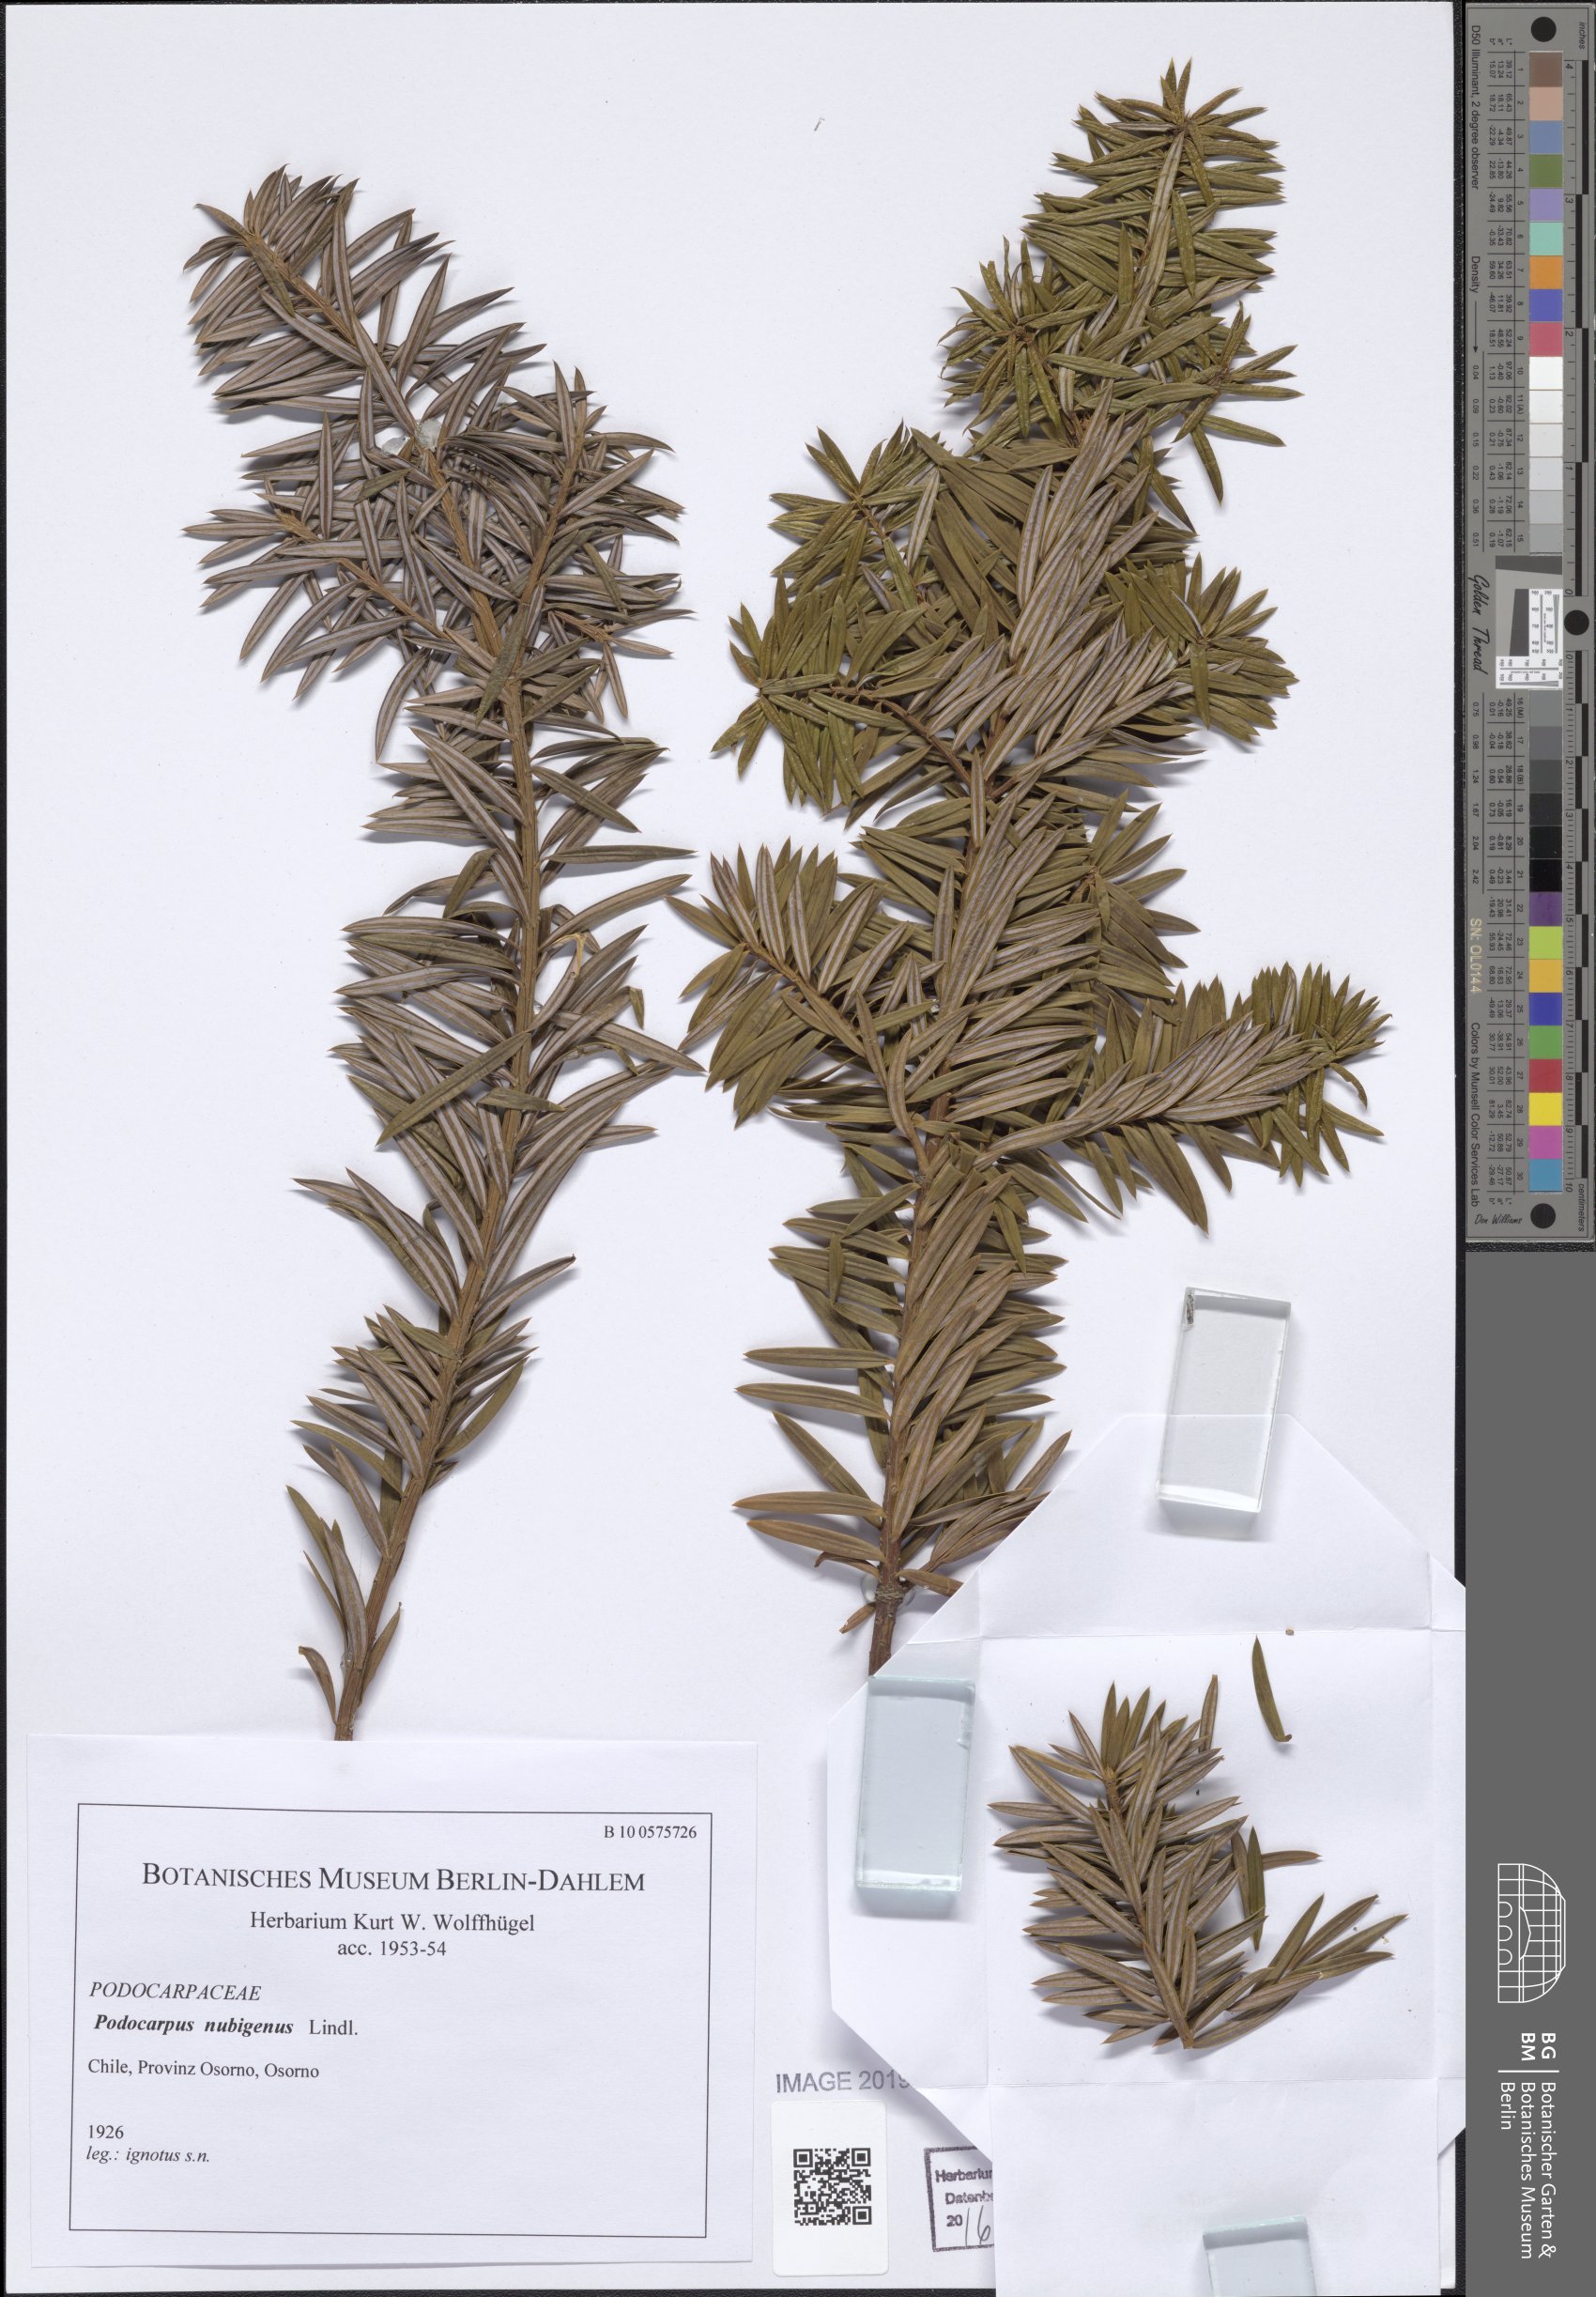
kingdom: Plantae
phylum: Tracheophyta
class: Pinopsida
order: Pinales
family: Podocarpaceae
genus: Podocarpus
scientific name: Podocarpus nubigenus
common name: Cloud podocarp
